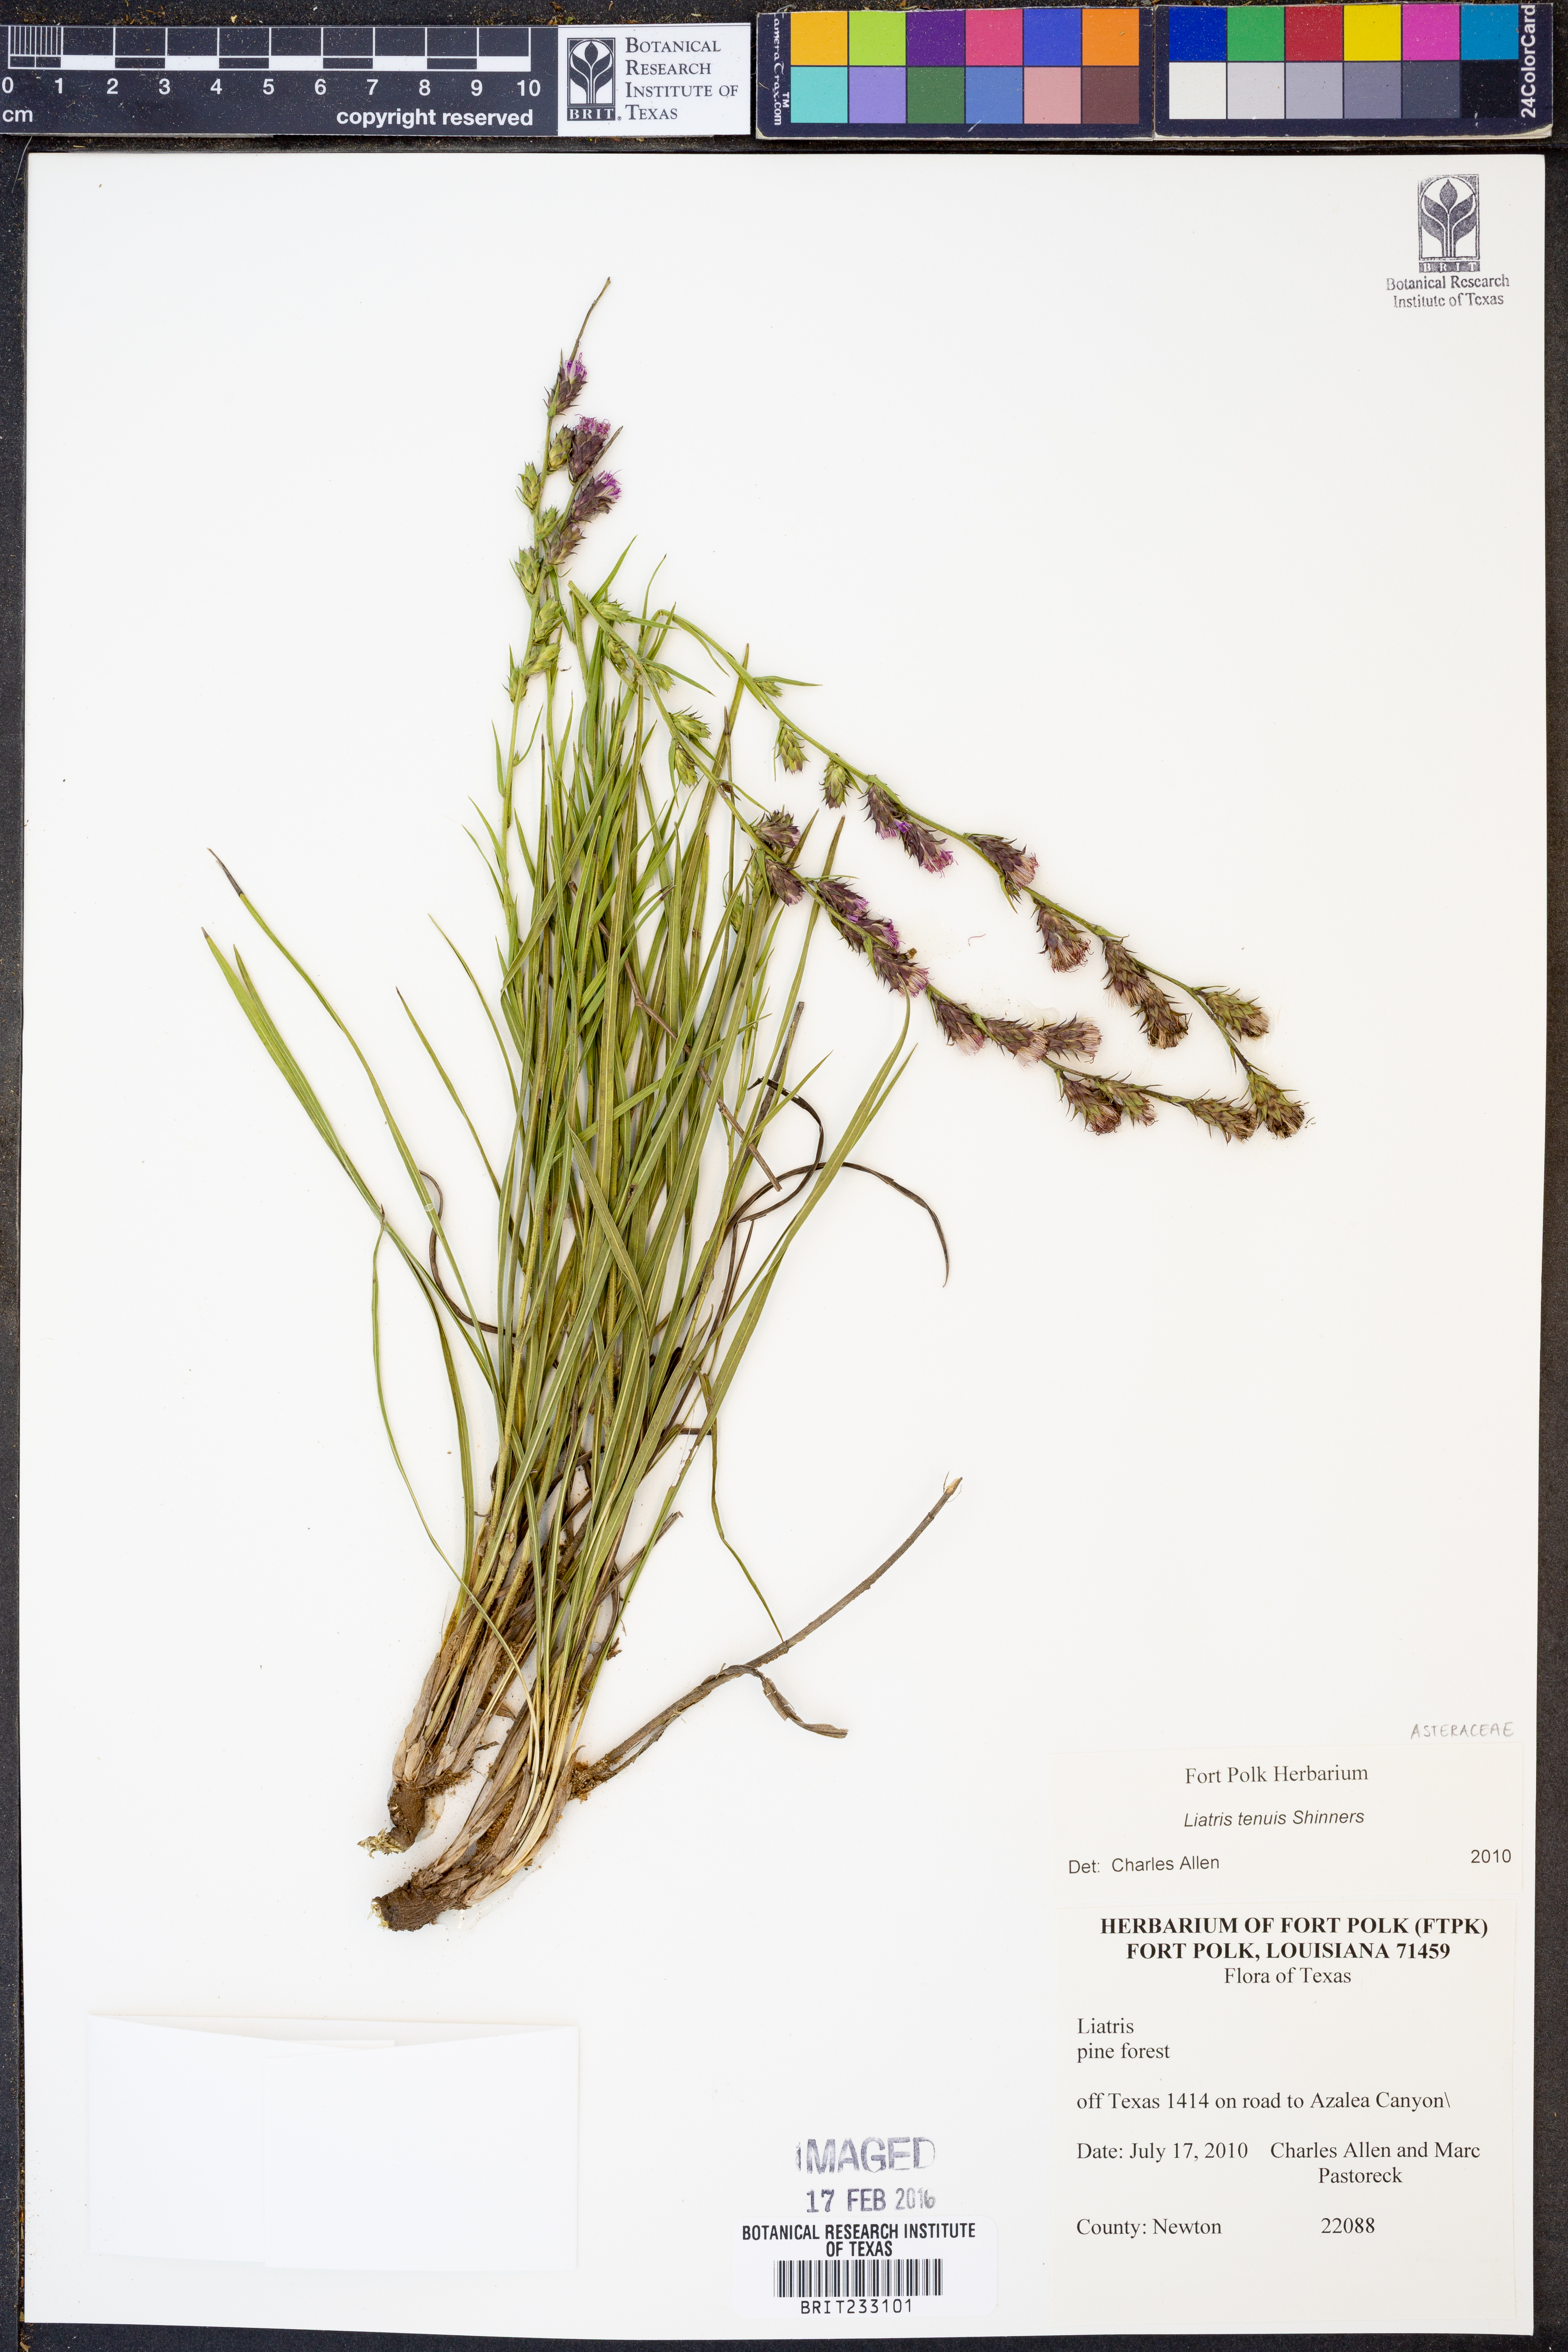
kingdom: Plantae
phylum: Tracheophyta
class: Magnoliopsida
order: Asterales
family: Asteraceae
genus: Liatris
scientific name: Liatris tenuis
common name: Shinner's gayfeather
